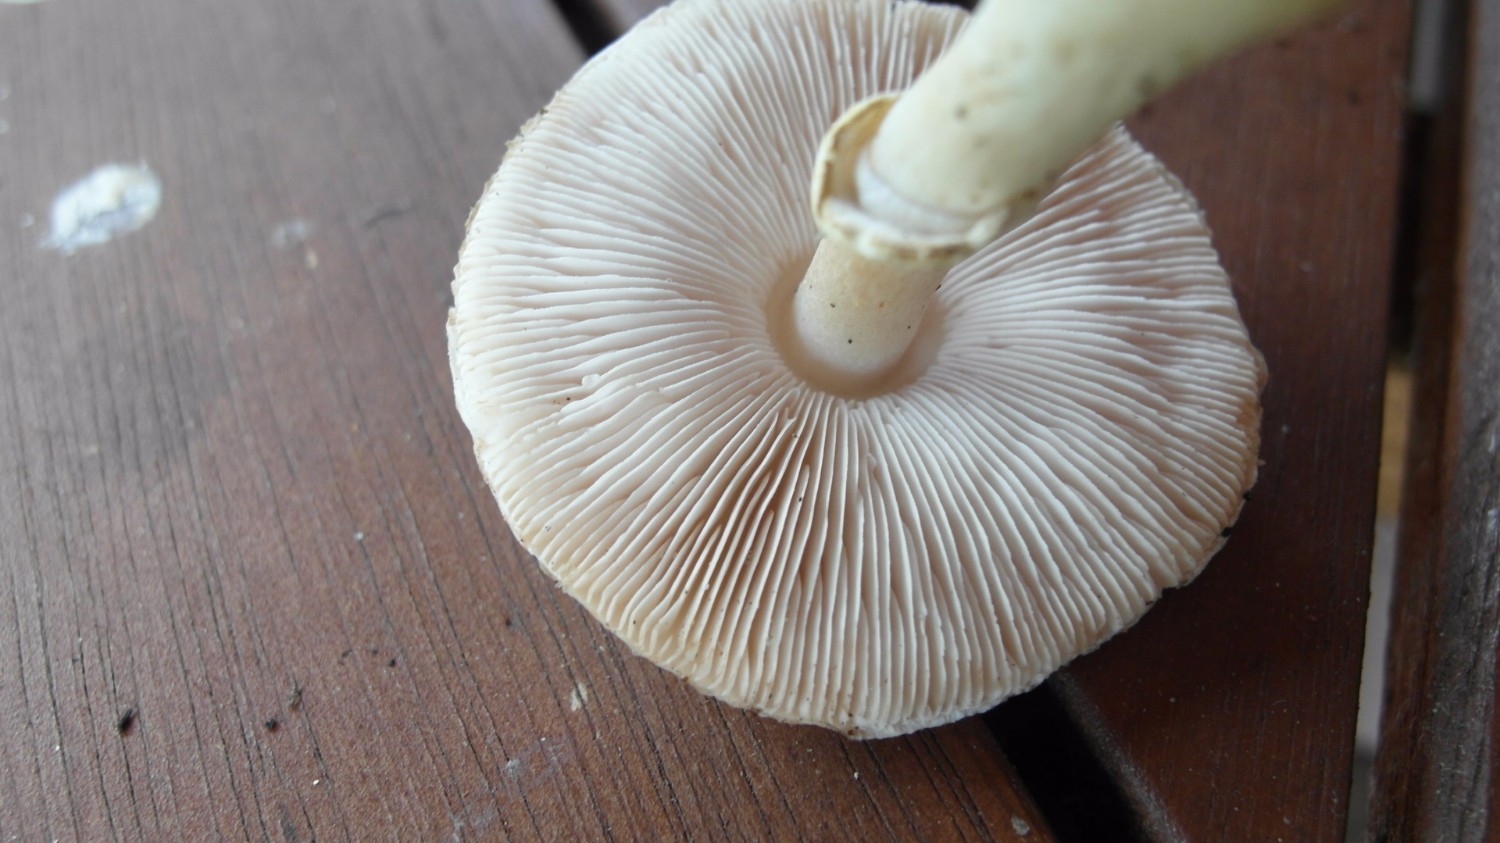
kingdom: Fungi
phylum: Basidiomycota
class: Agaricomycetes
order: Agaricales
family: Agaricaceae
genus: Leucoagaricus
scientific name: Leucoagaricus leucothites
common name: rosabladet silkehat
